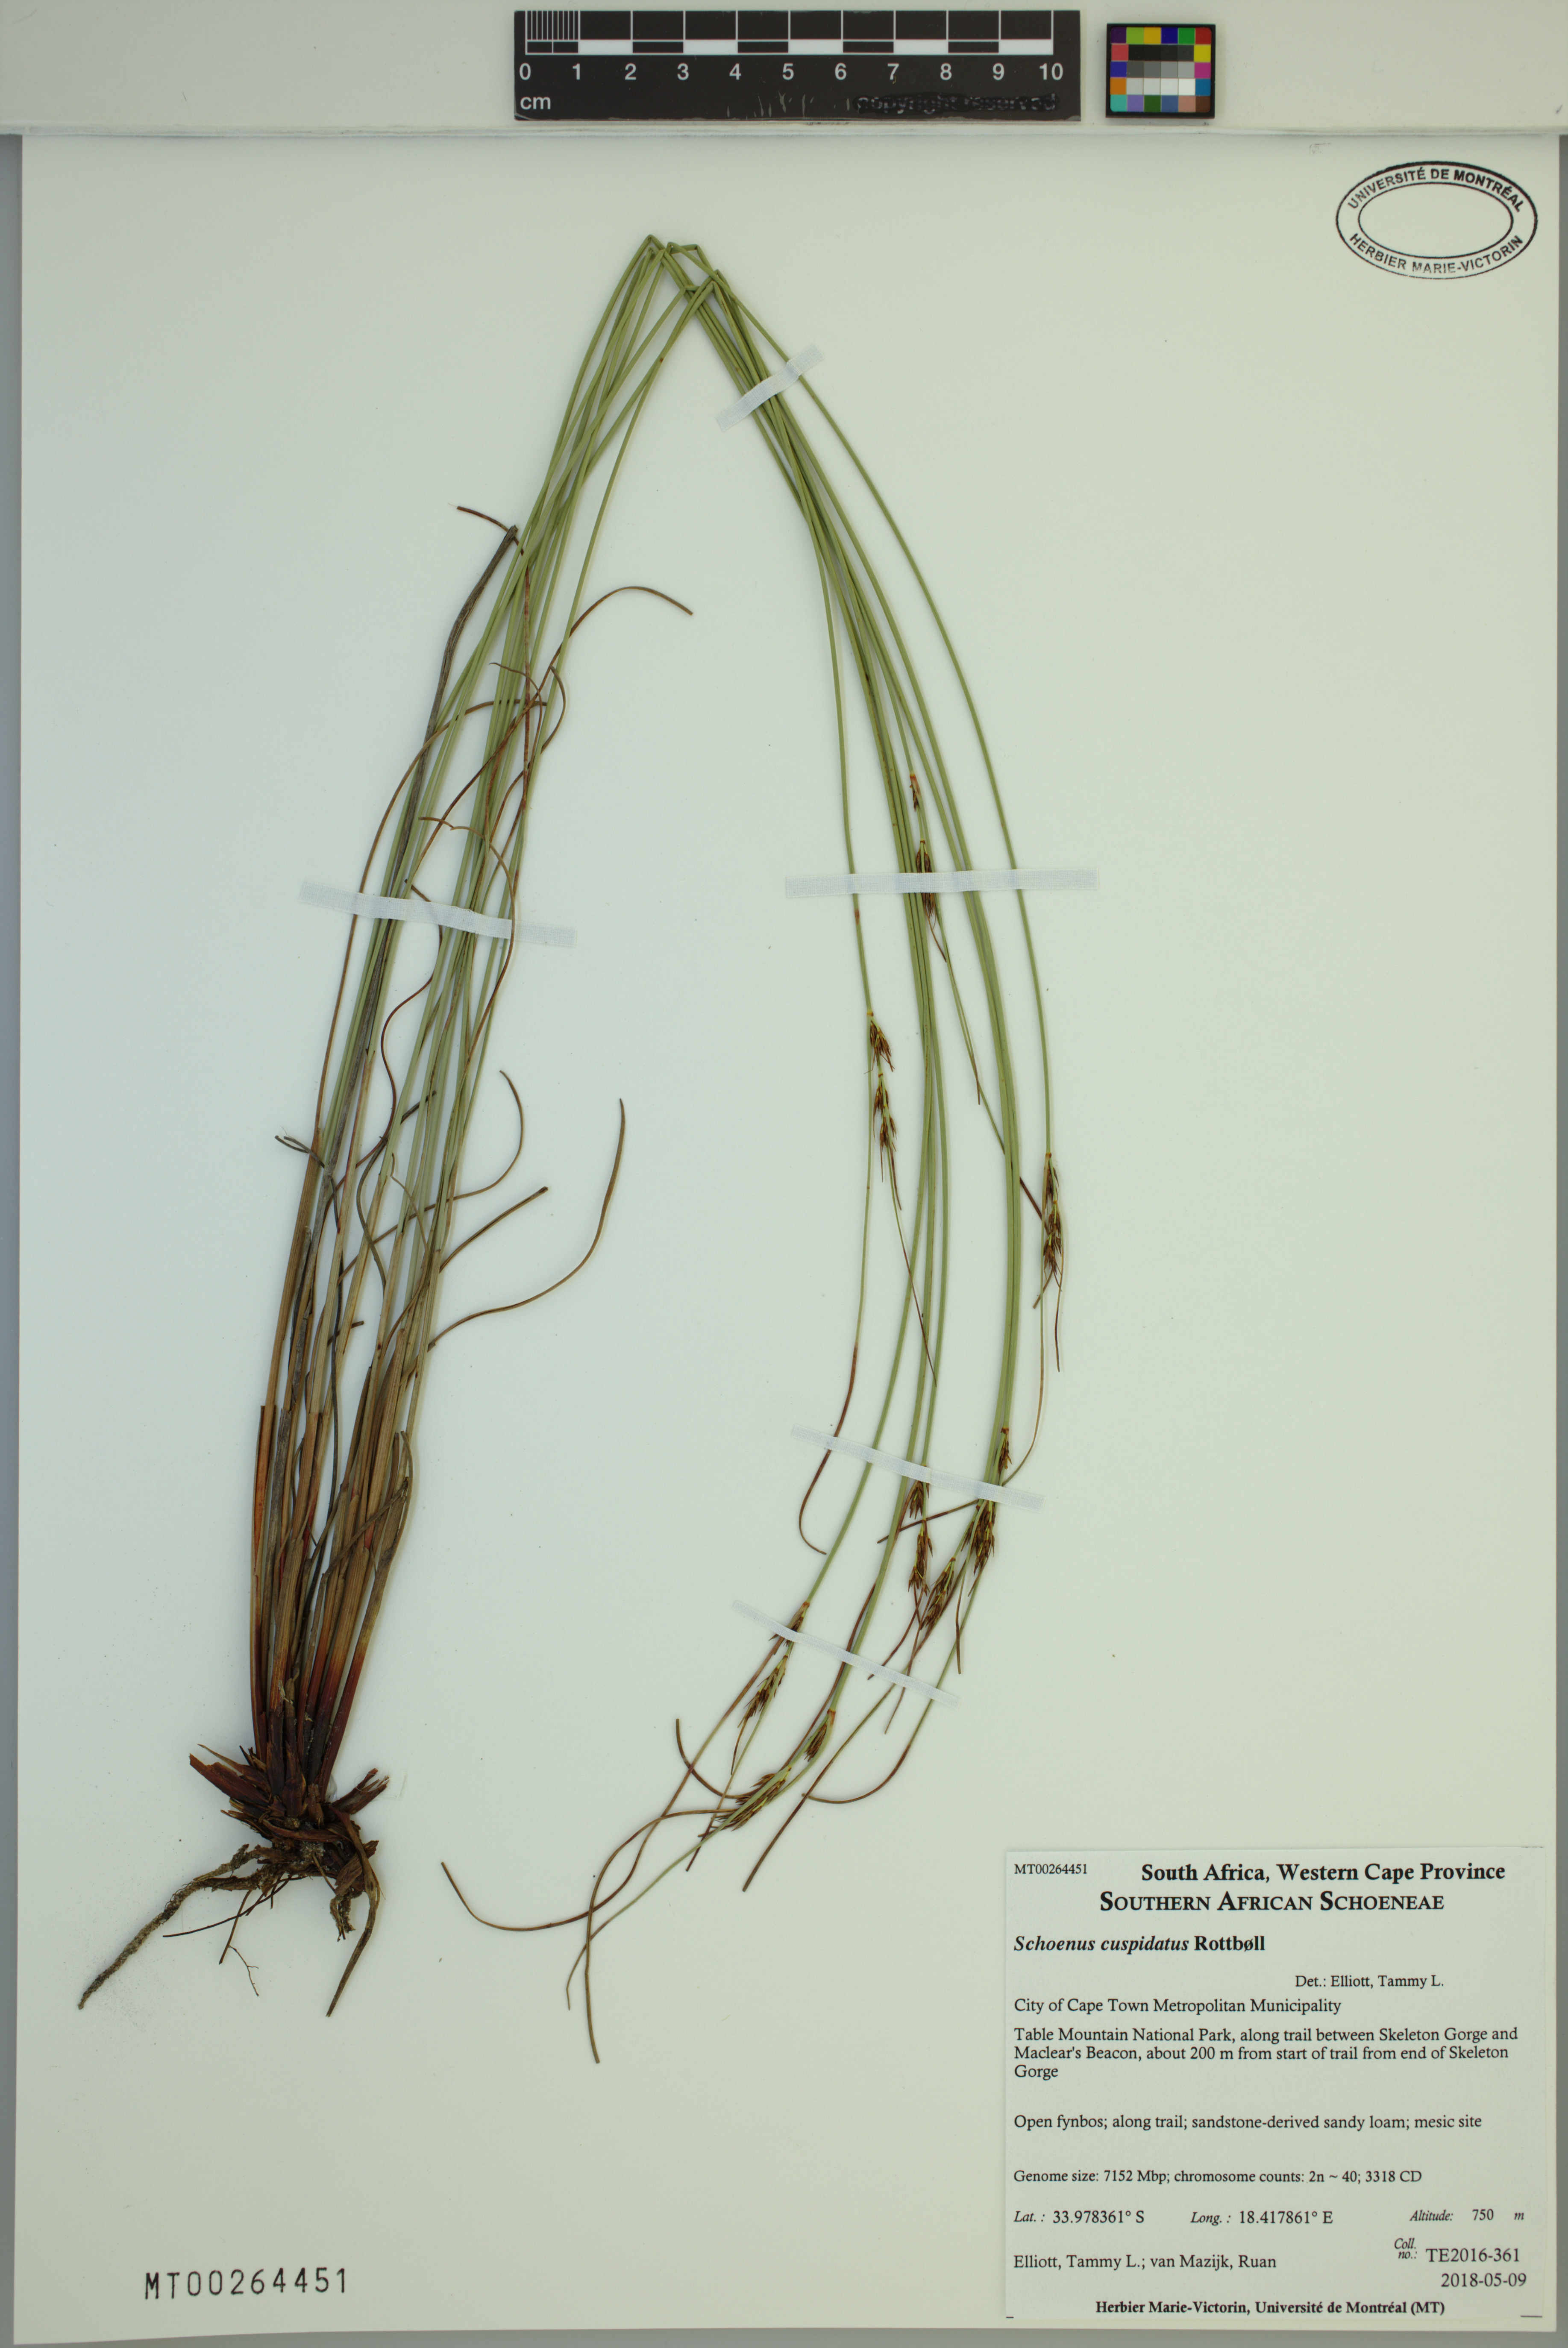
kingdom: Plantae
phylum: Tracheophyta
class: Liliopsida
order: Poales
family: Cyperaceae
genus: Schoenus
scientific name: Schoenus cuspidatus
